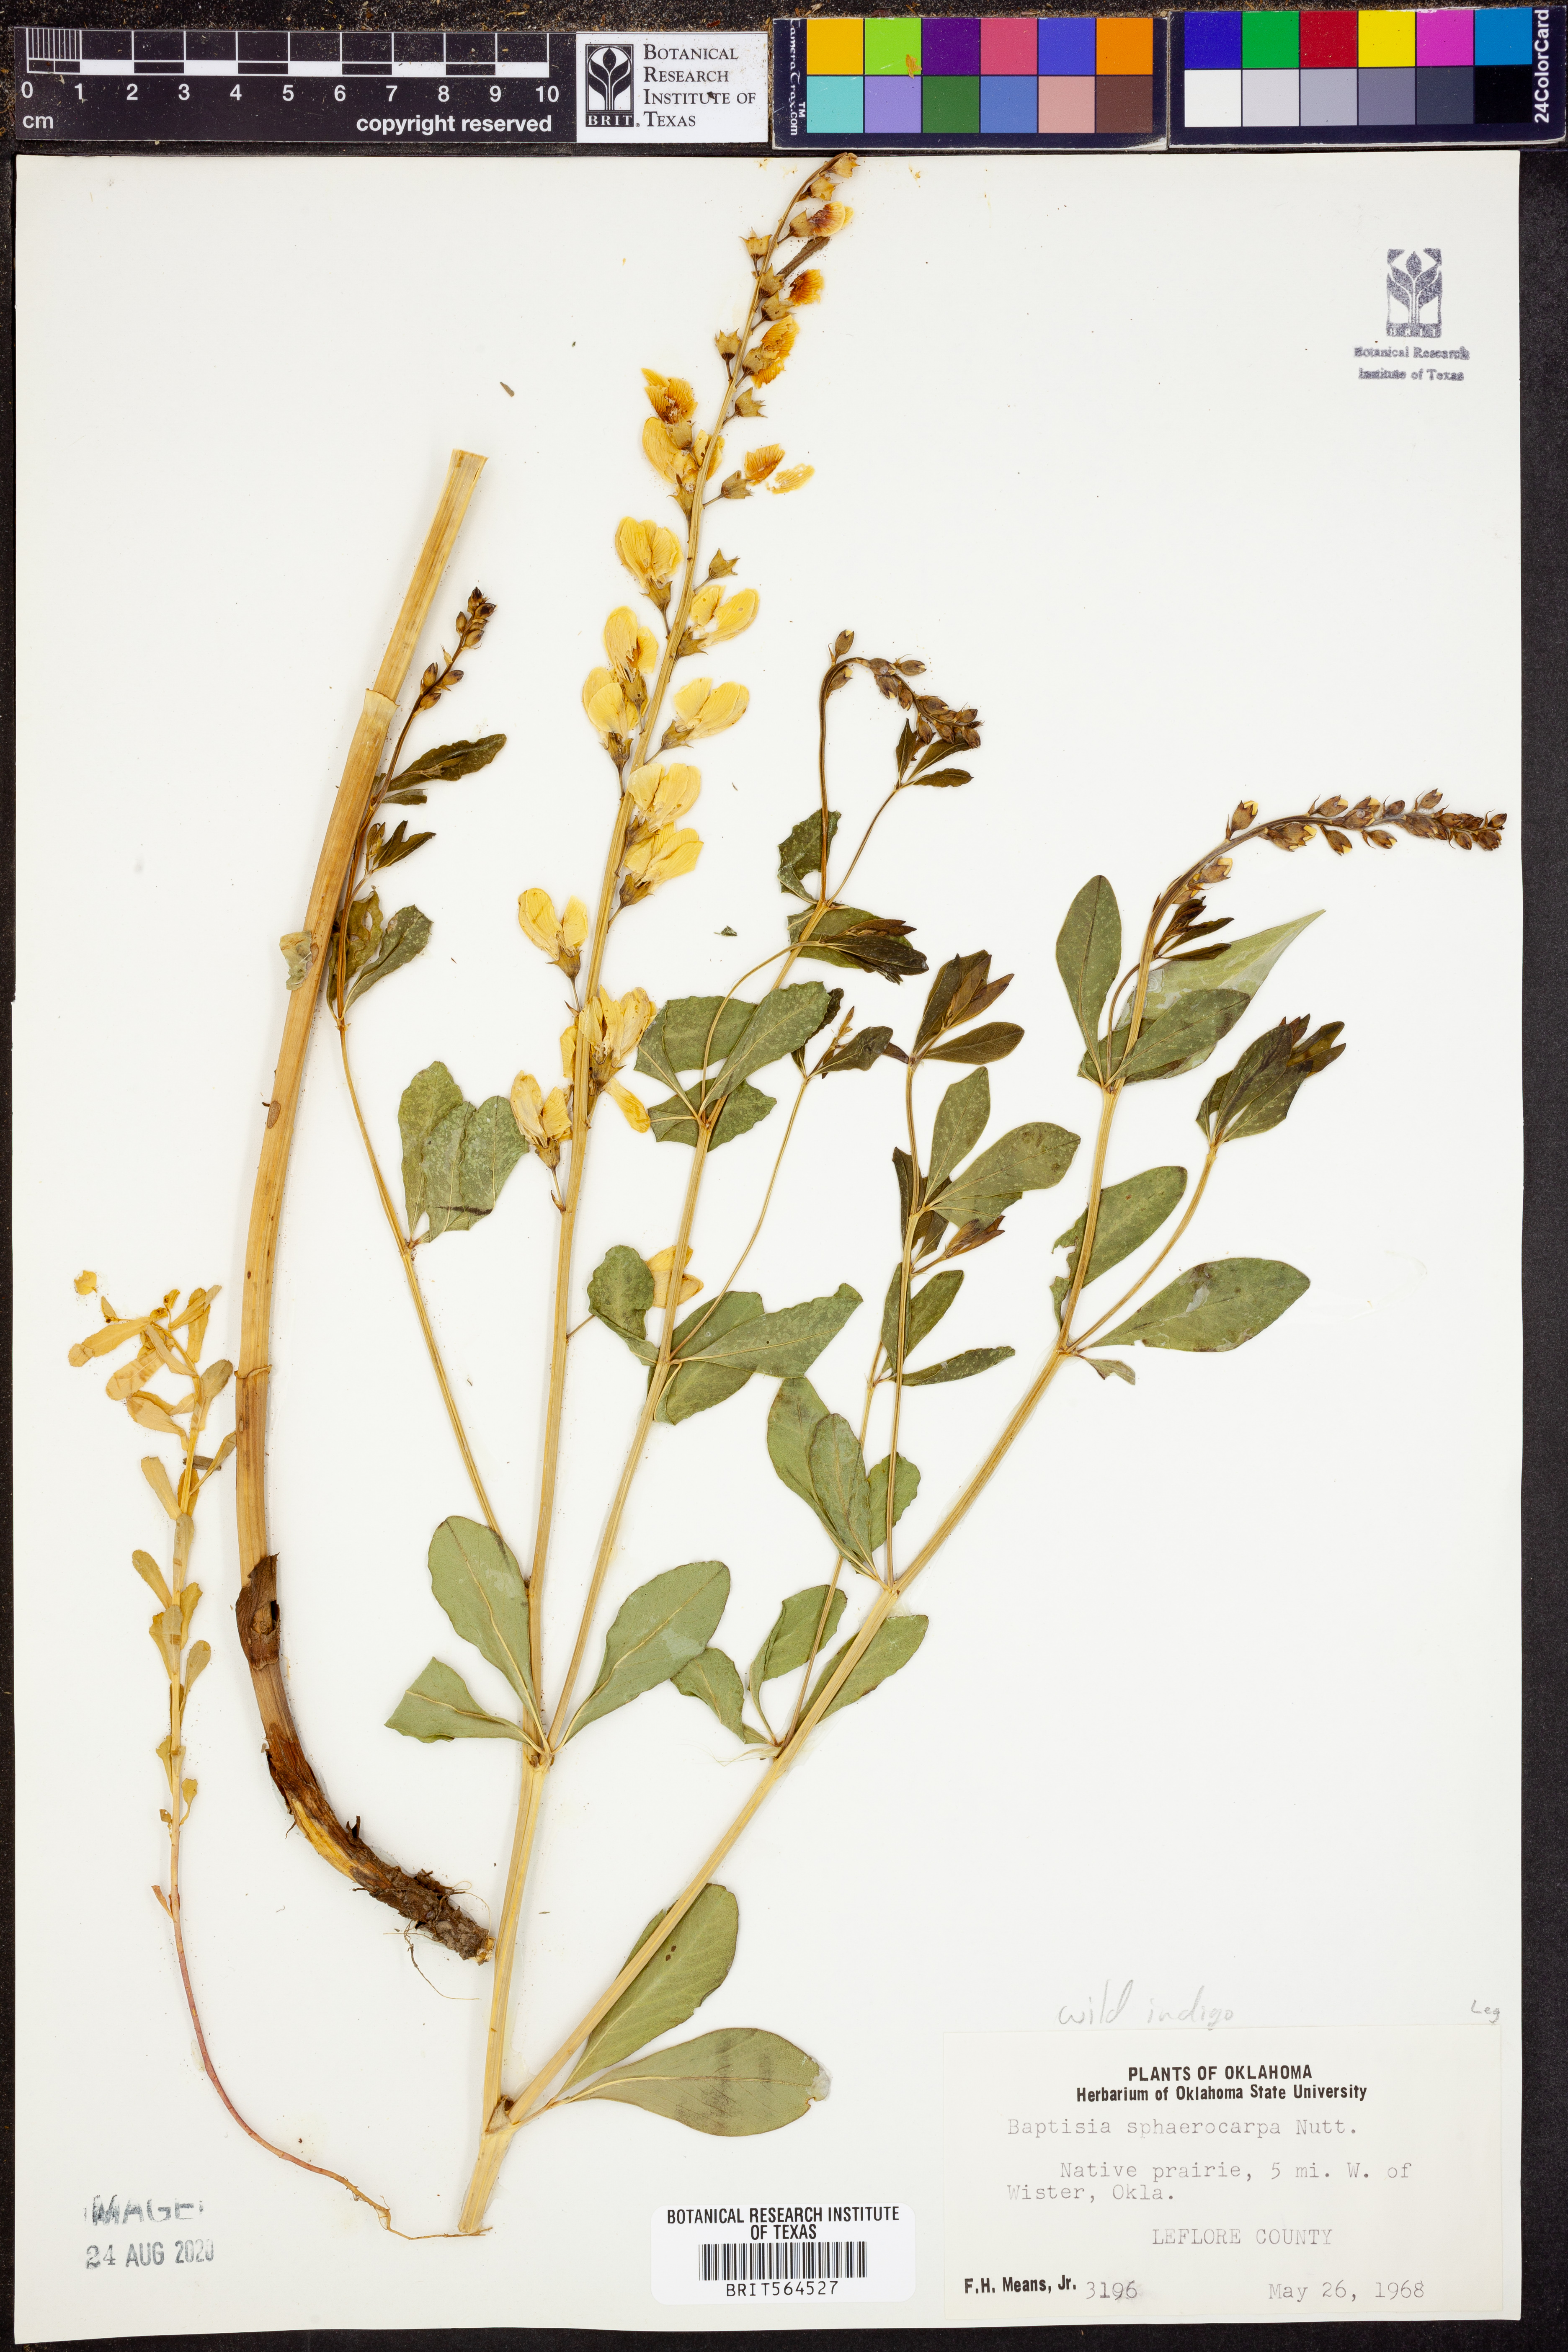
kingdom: Plantae
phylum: Tracheophyta
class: Magnoliopsida
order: Fabales
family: Fabaceae
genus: Baptisia
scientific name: Baptisia sphaerocarpa
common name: Round wild indigo
